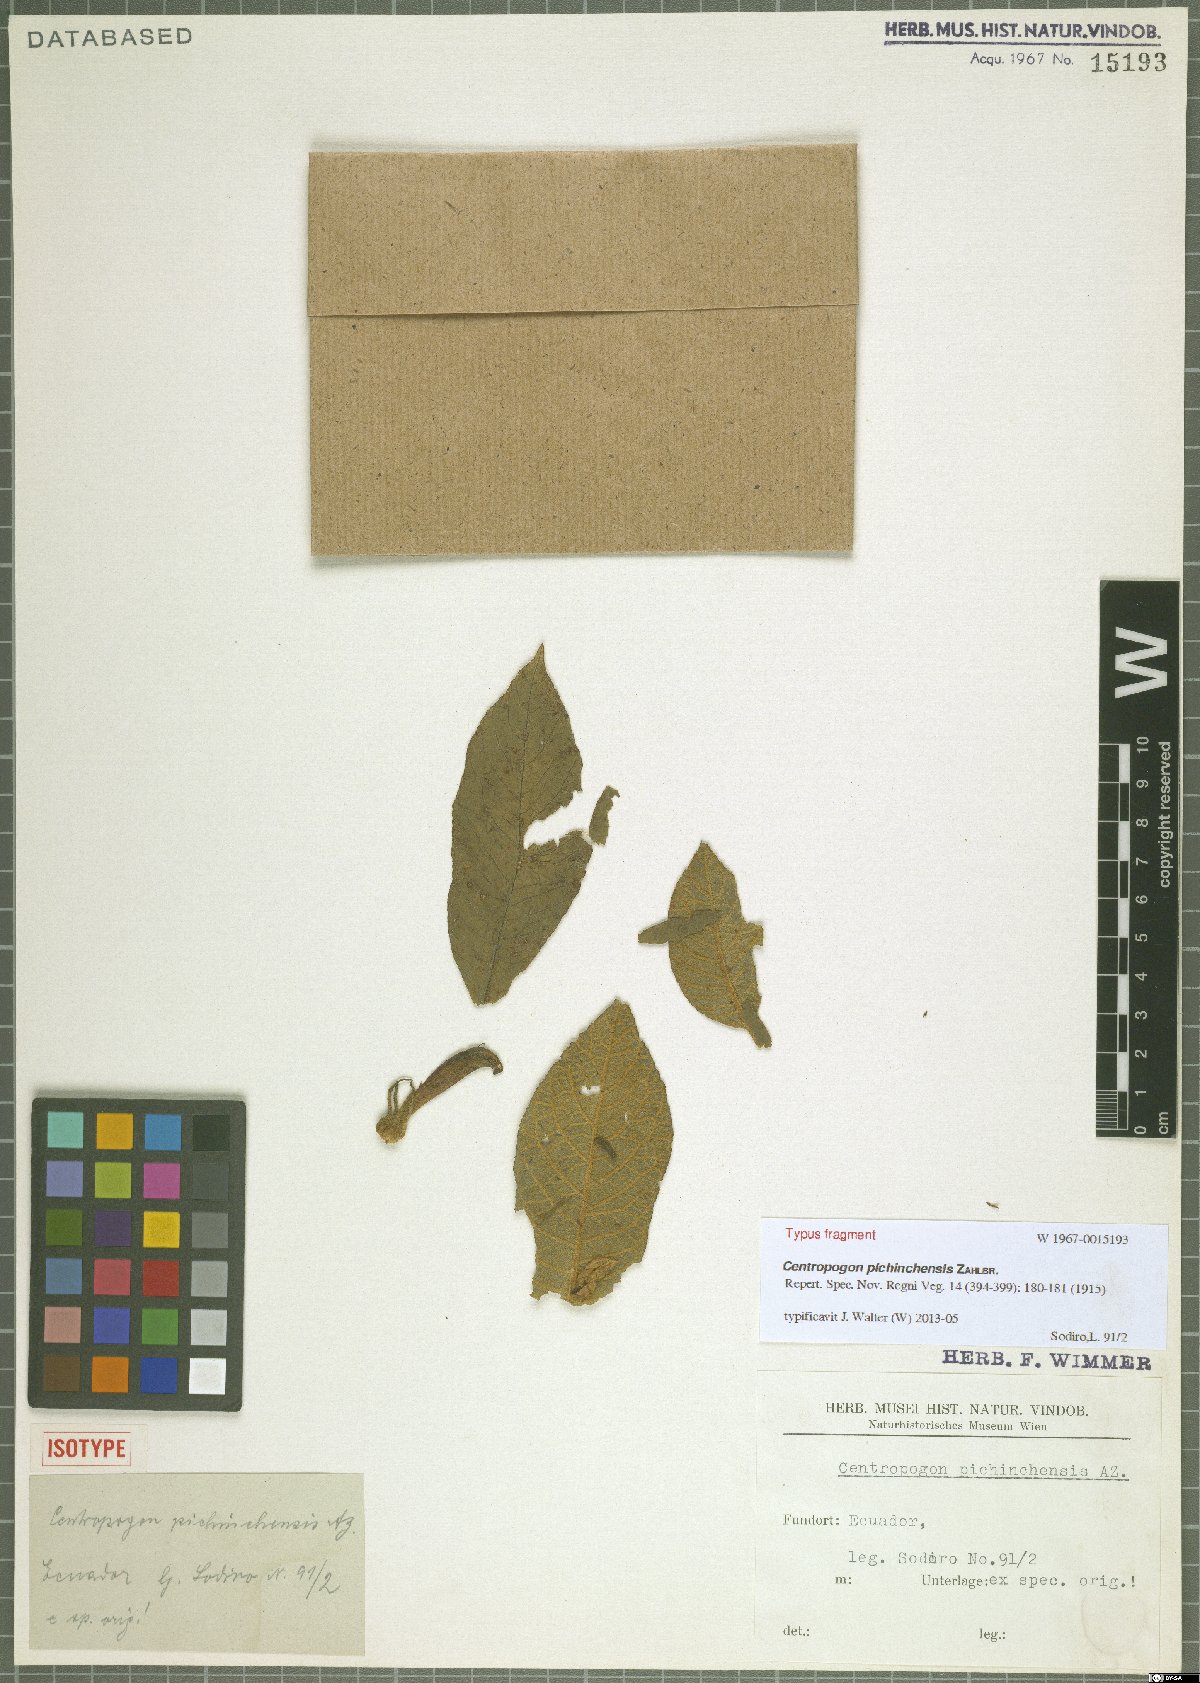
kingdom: Plantae
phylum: Tracheophyta
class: Magnoliopsida
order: Asterales
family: Campanulaceae
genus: Centropogon
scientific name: Centropogon pichinchensis
